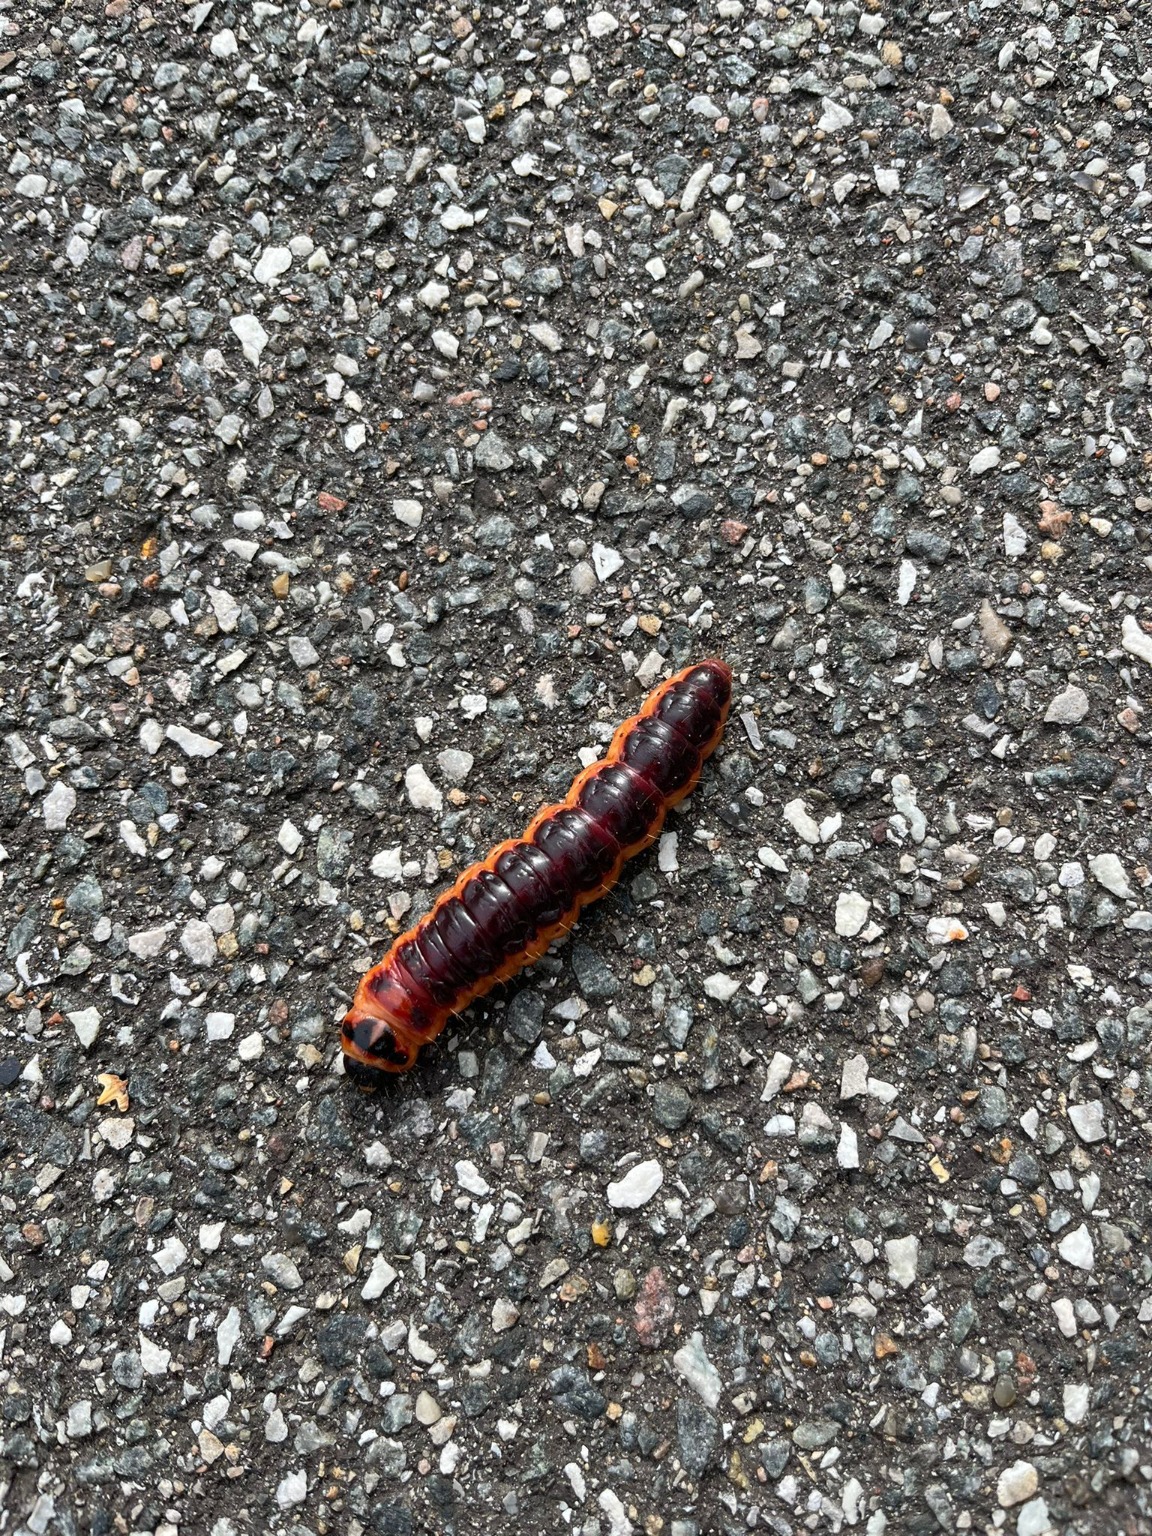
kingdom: Animalia
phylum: Arthropoda
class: Insecta
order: Lepidoptera
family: Cossidae
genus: Cossus
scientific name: Cossus cossus
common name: Pileborer
